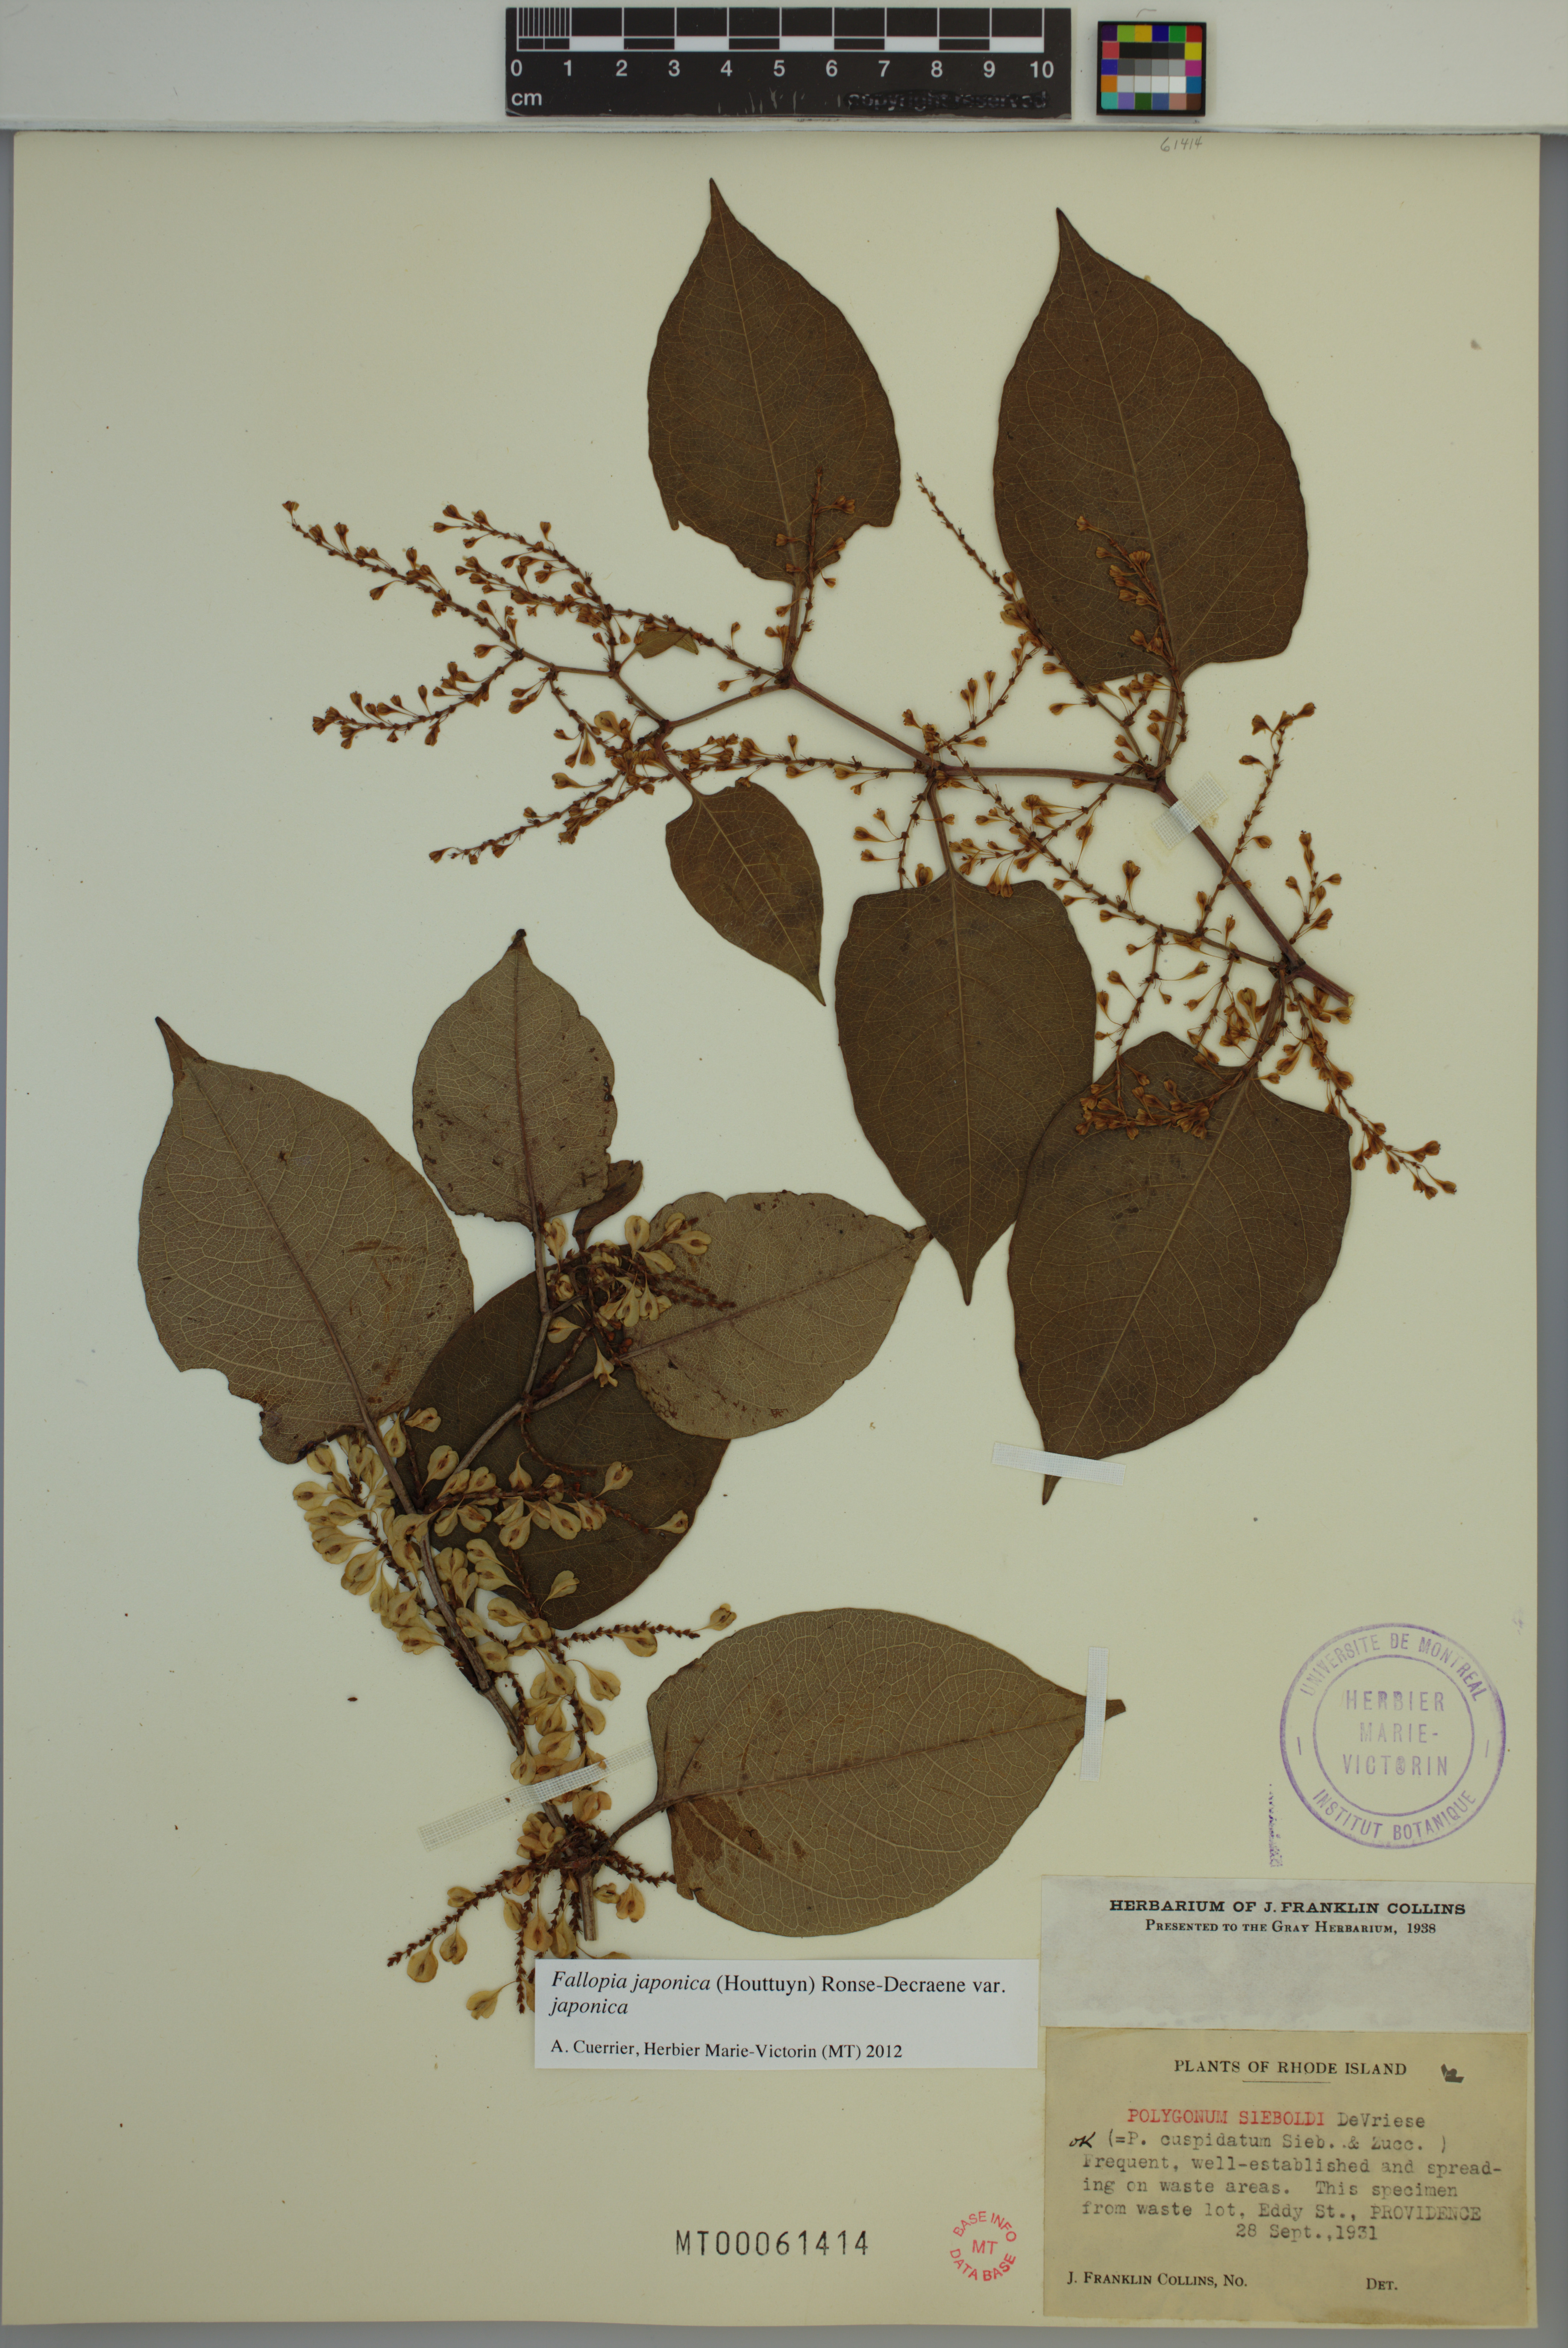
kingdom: Plantae
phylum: Tracheophyta
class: Magnoliopsida
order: Caryophyllales
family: Polygonaceae
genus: Reynoutria
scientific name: Reynoutria japonica
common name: Japanese knotweed
